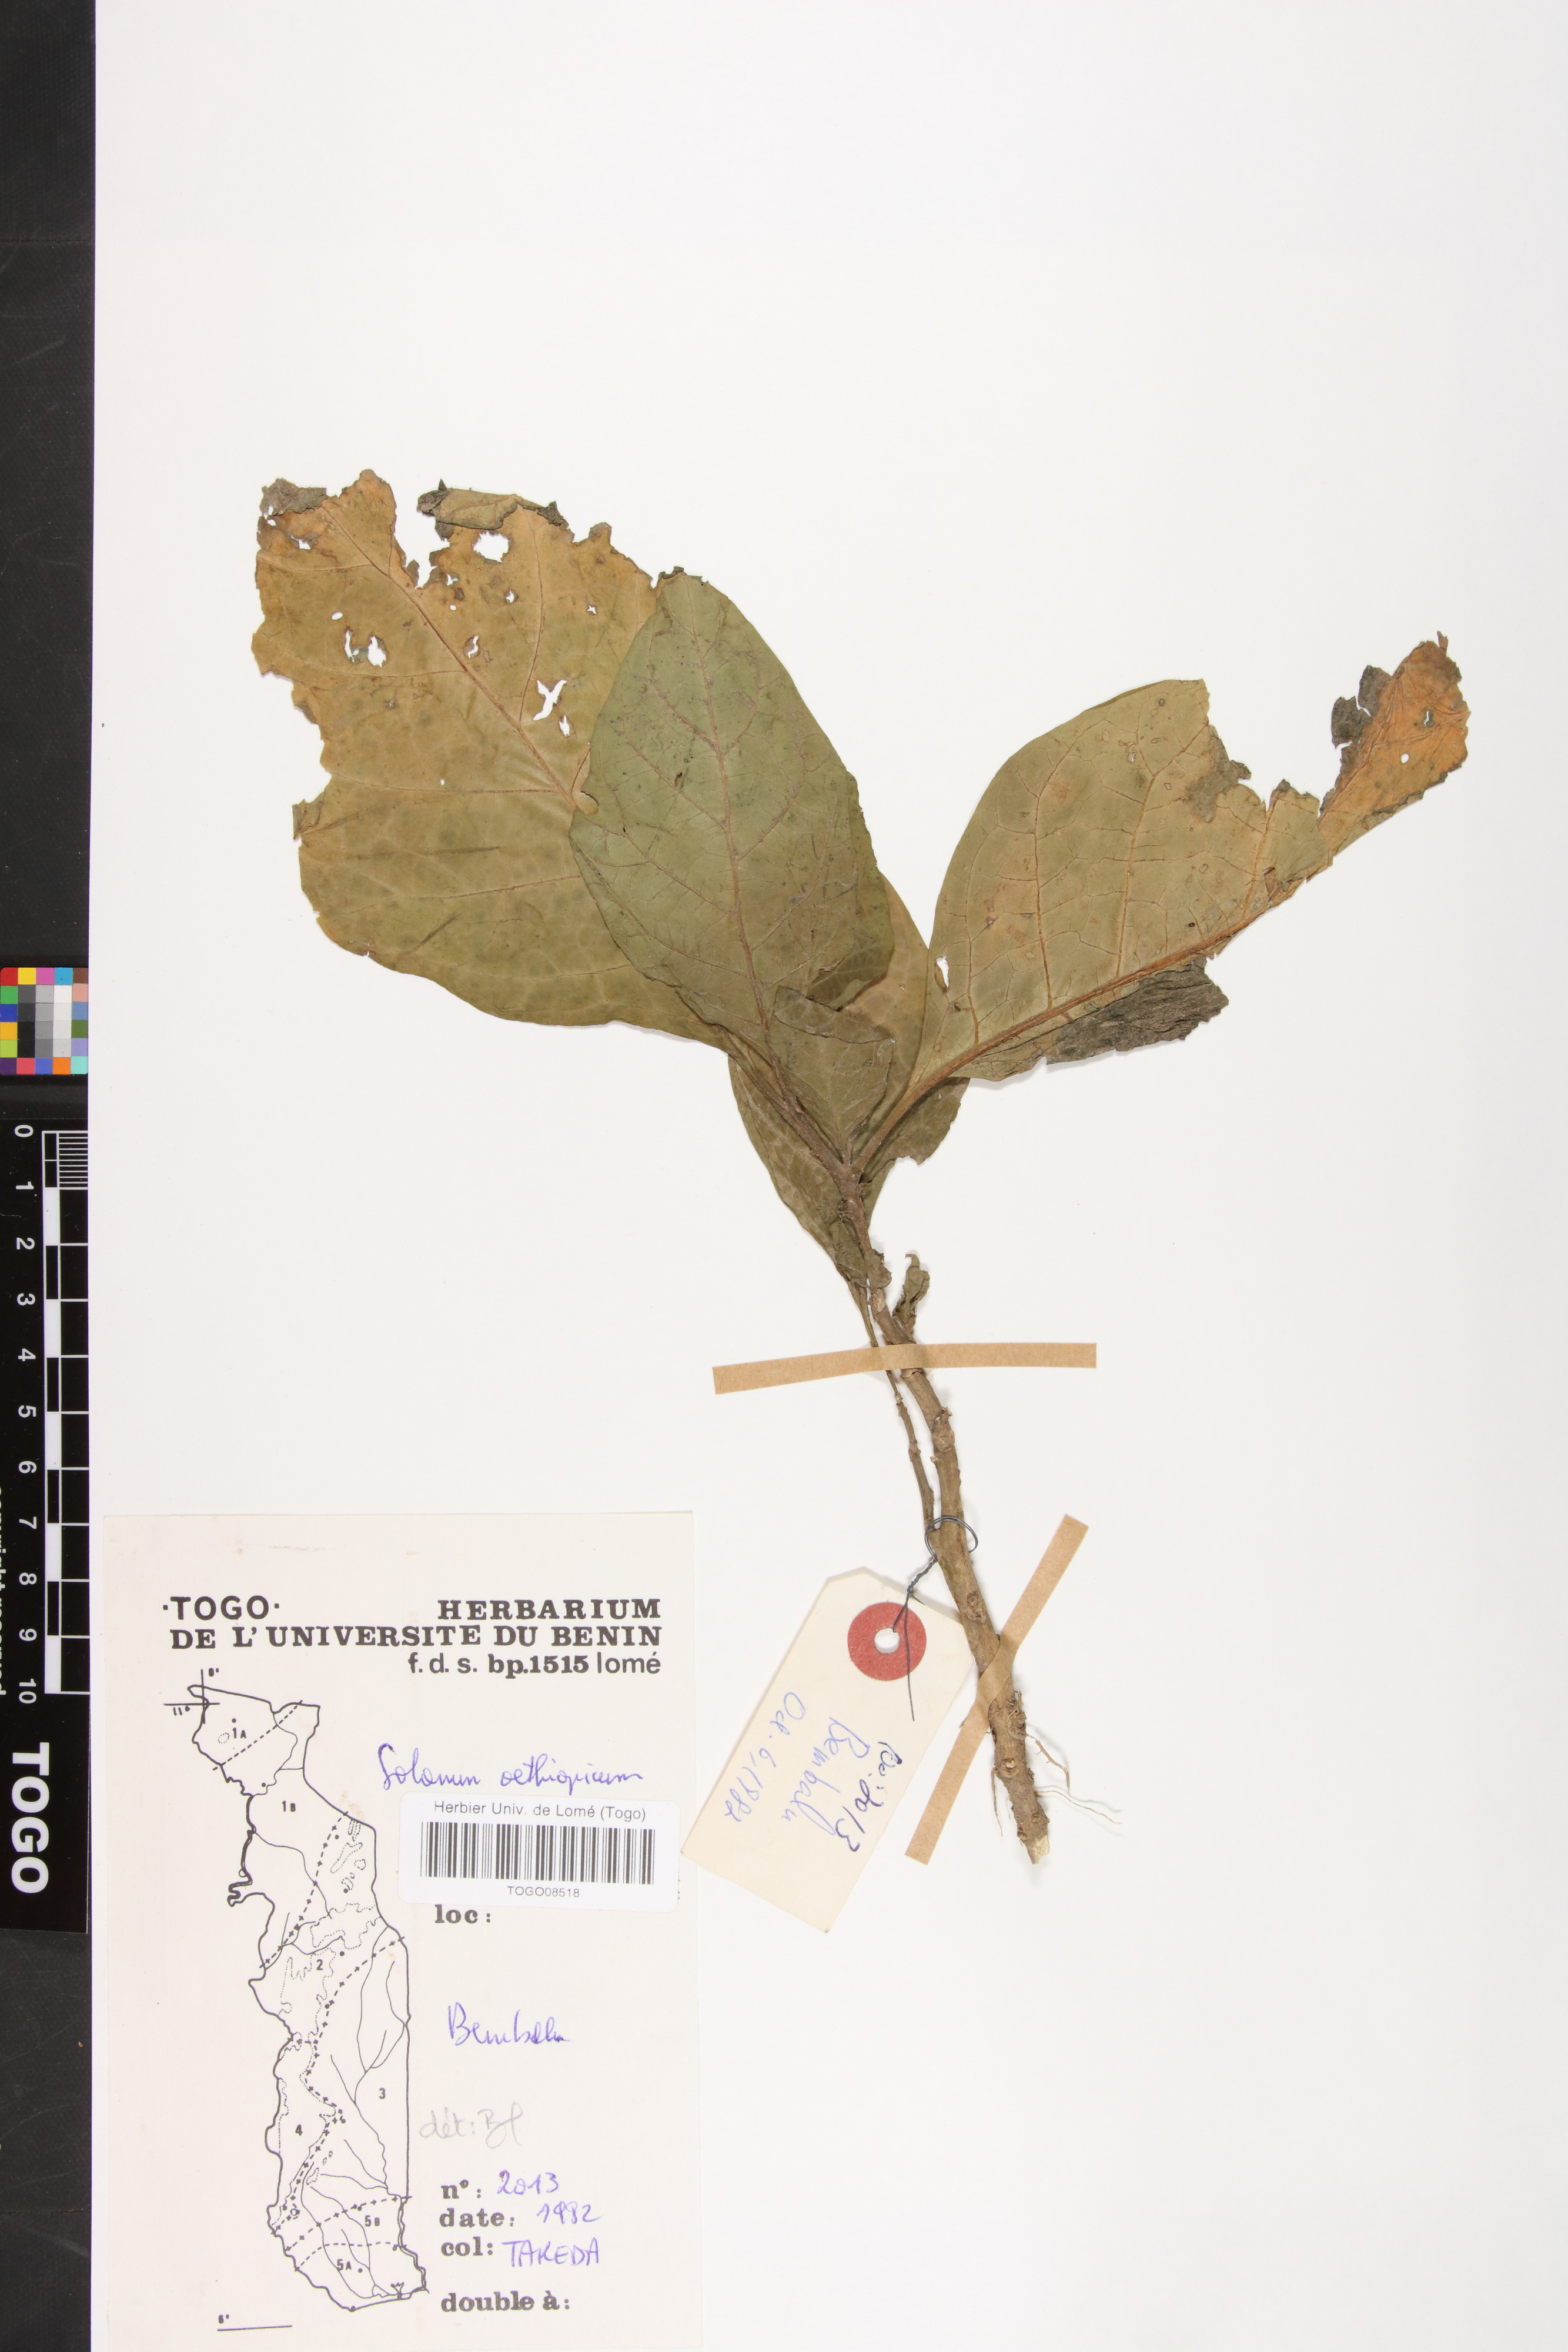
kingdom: Plantae
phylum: Tracheophyta
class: Magnoliopsida
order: Solanales
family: Solanaceae
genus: Solanum
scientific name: Solanum aethiopicum
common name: Gilo
